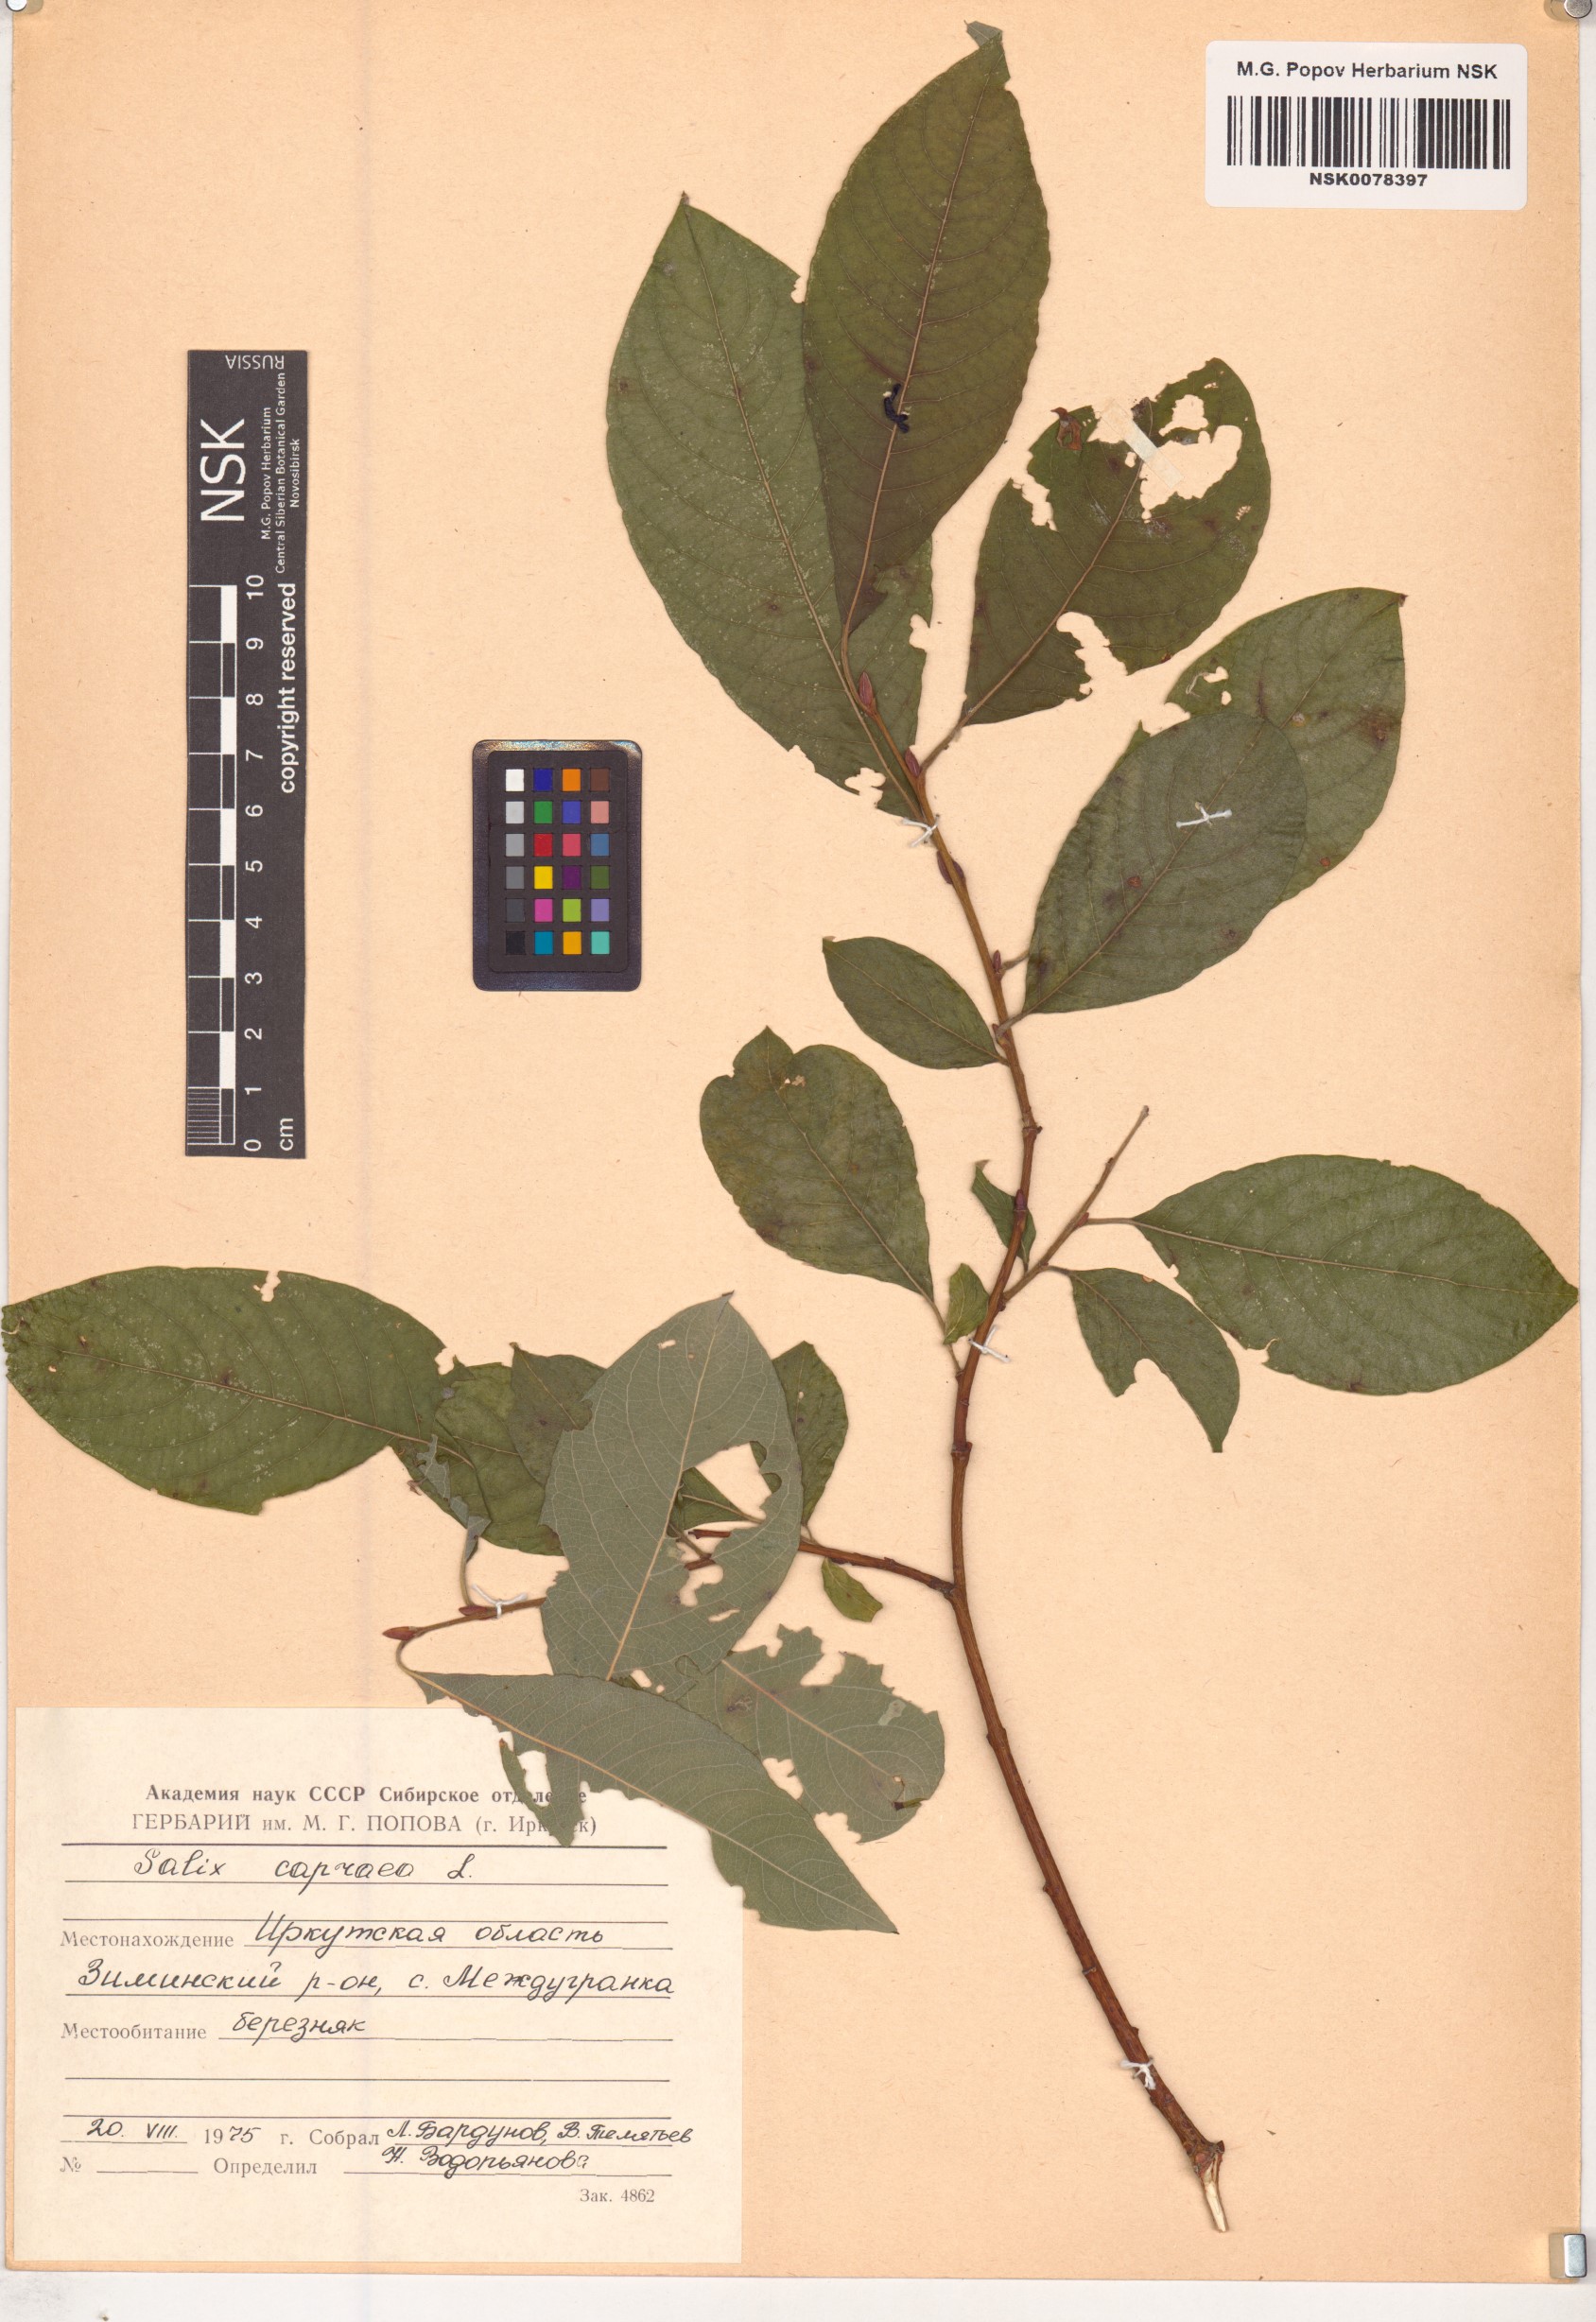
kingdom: Plantae
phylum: Tracheophyta
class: Magnoliopsida
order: Malpighiales
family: Salicaceae
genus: Salix
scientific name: Salix caprea
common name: Goat willow
